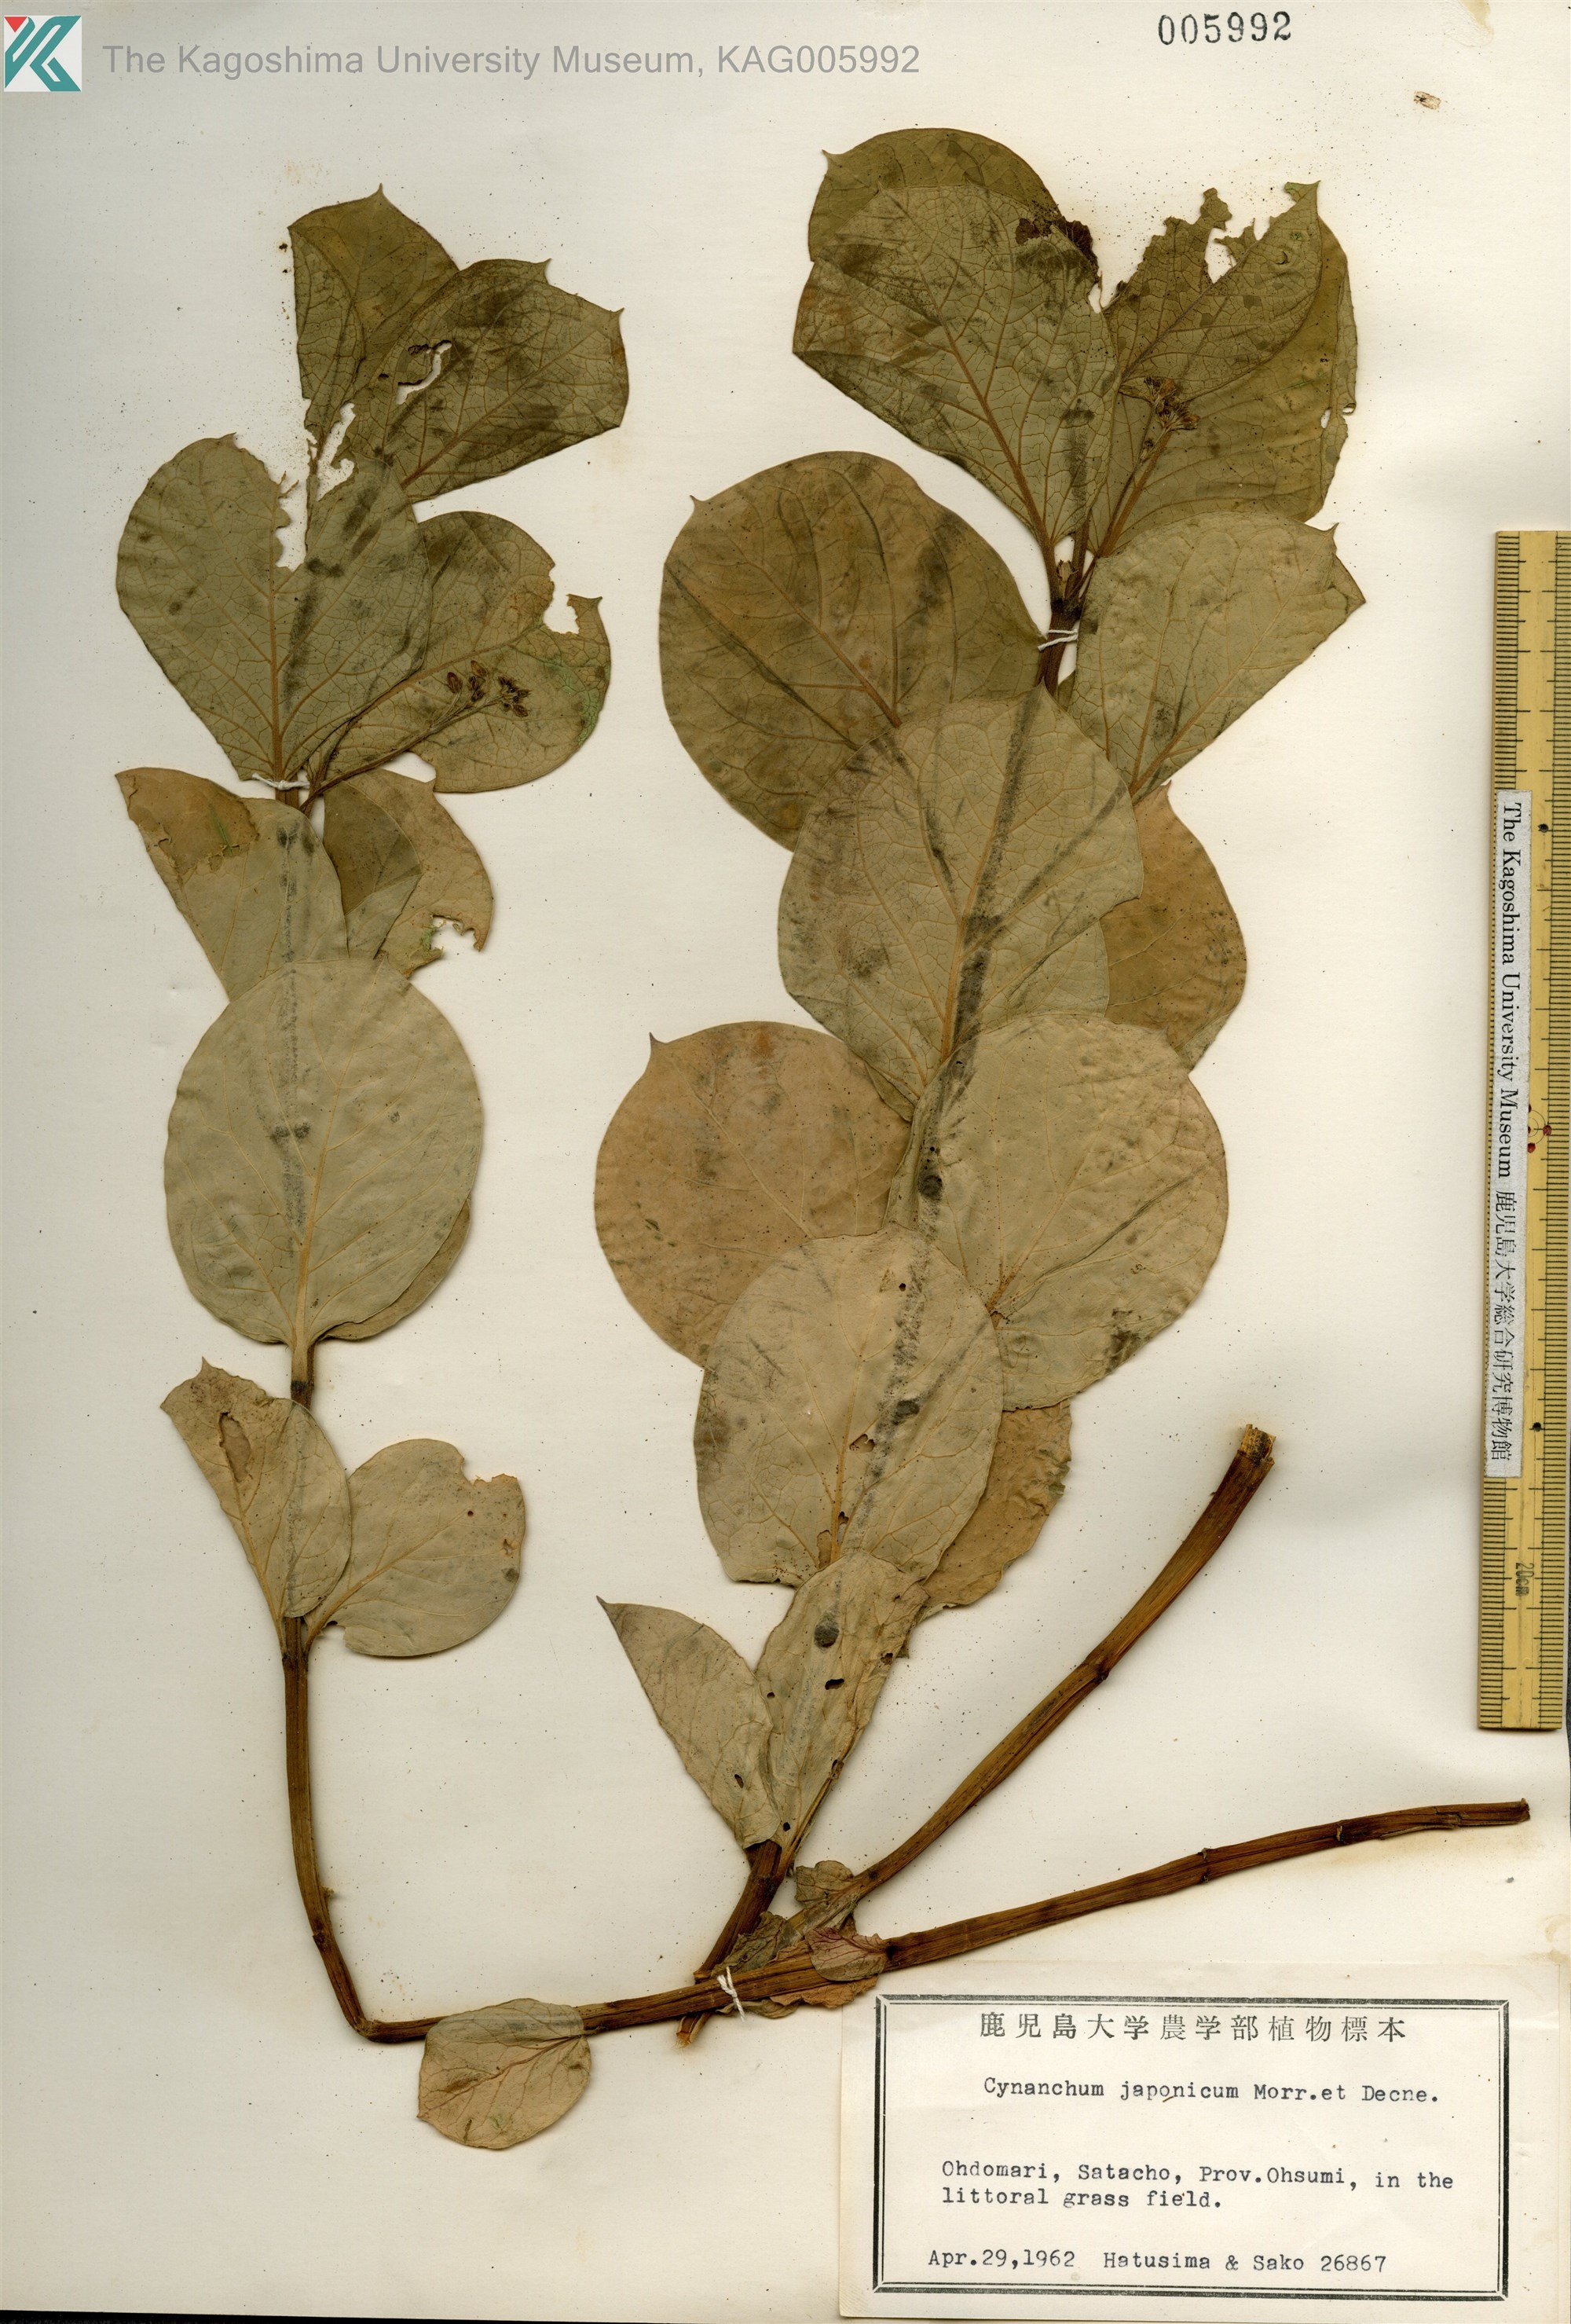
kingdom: Plantae
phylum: Tracheophyta
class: Magnoliopsida
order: Gentianales
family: Apocynaceae
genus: Vincetoxicum
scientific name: Vincetoxicum japonicum
